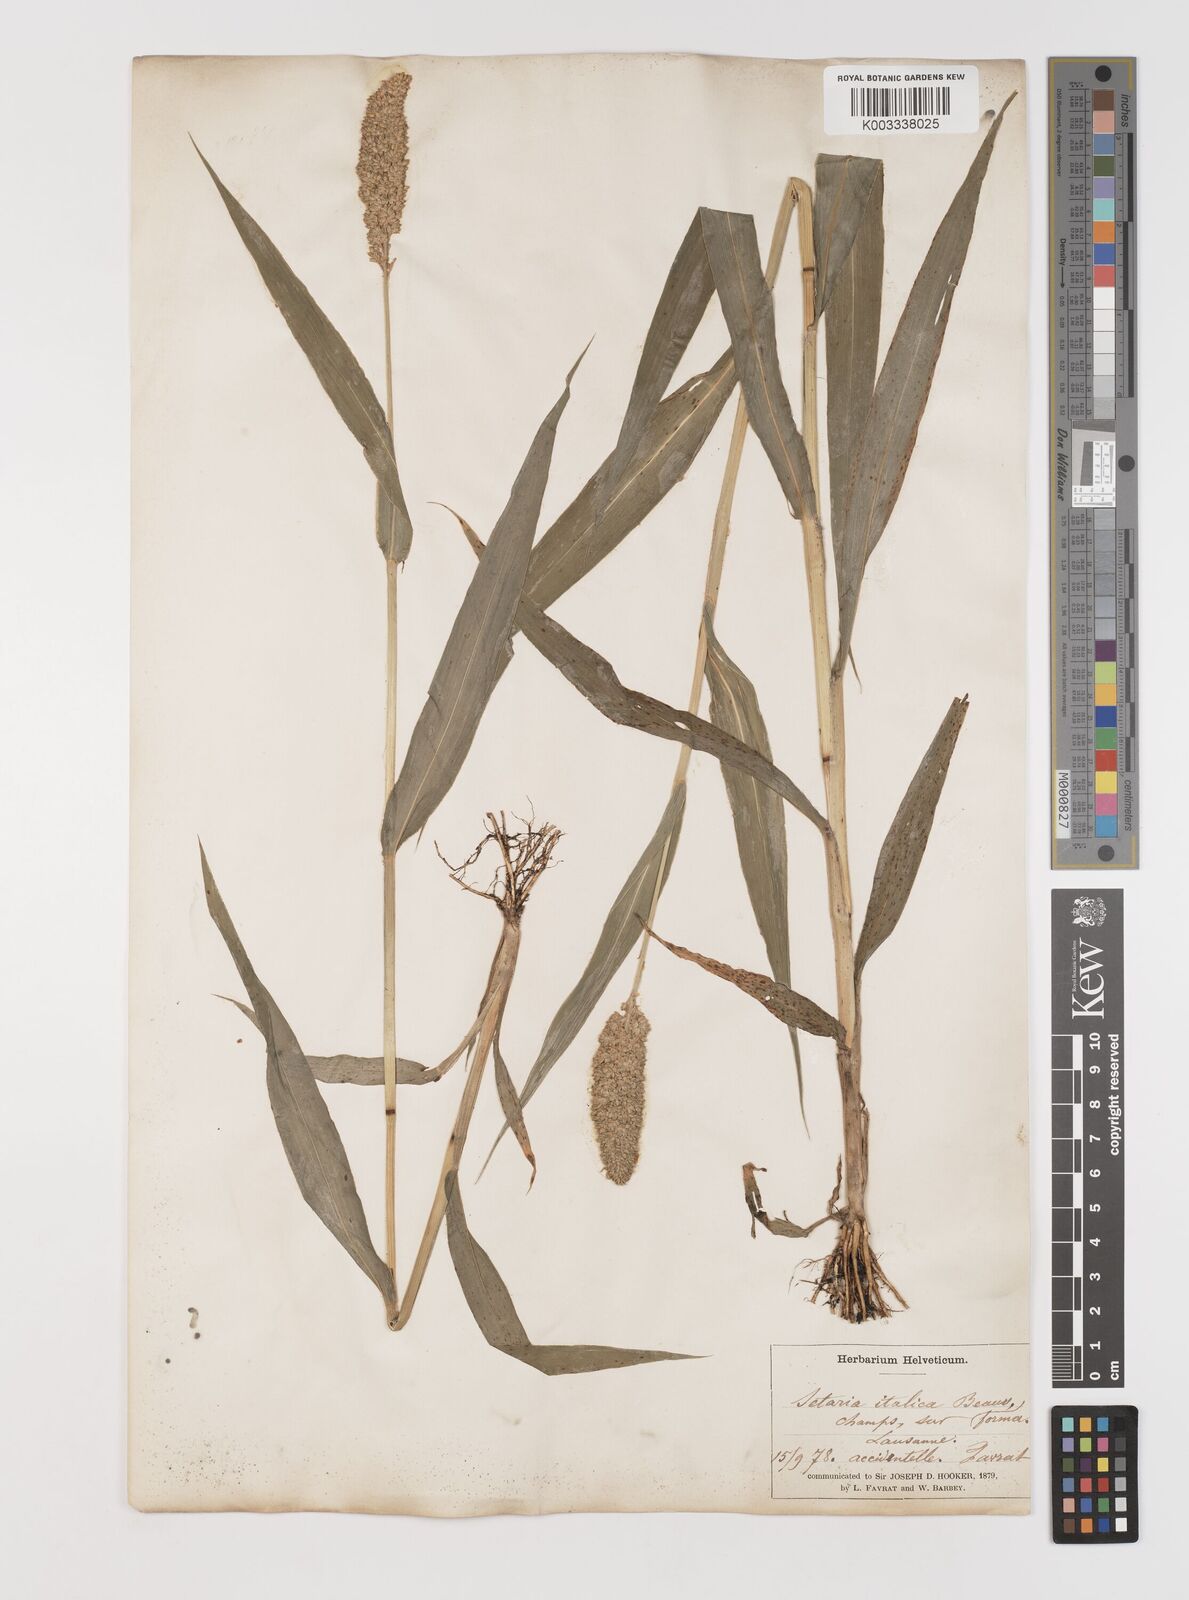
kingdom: Plantae
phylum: Tracheophyta
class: Liliopsida
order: Poales
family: Poaceae
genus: Setaria
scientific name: Setaria italica
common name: Foxtail bristle-grass
